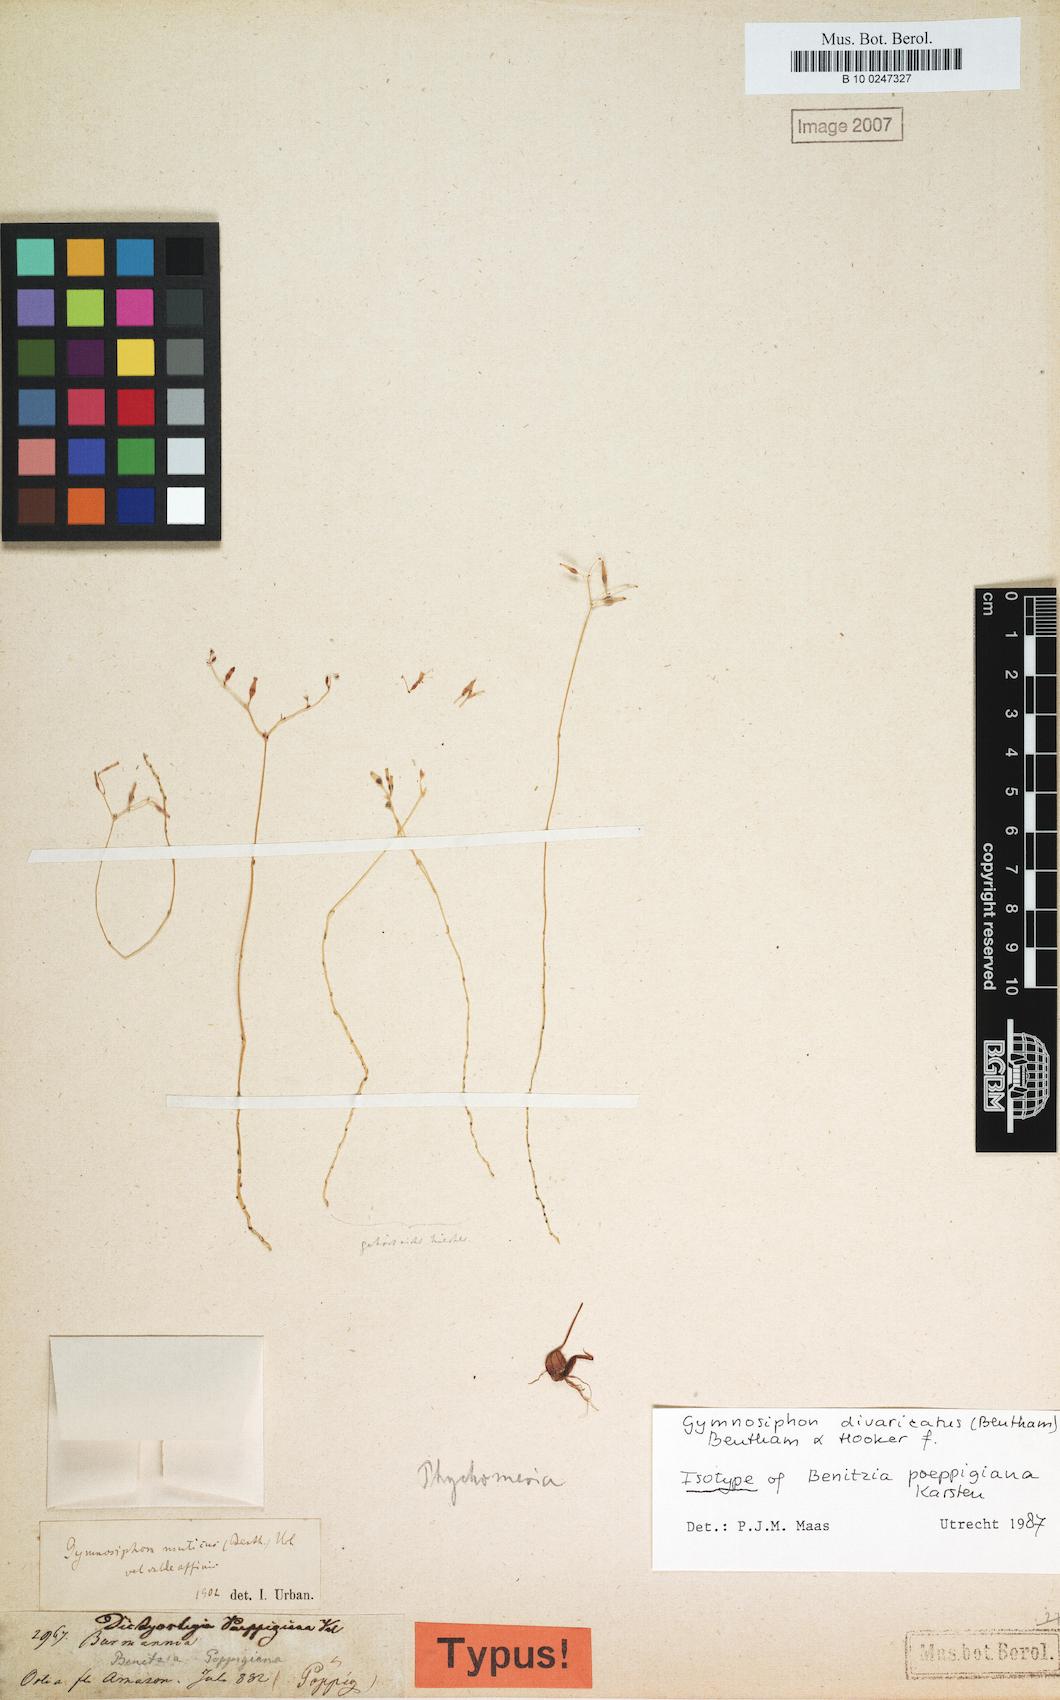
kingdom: Plantae
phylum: Tracheophyta
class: Liliopsida
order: Dioscoreales
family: Burmanniaceae
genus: Gymnosiphon
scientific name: Gymnosiphon divaricatus
